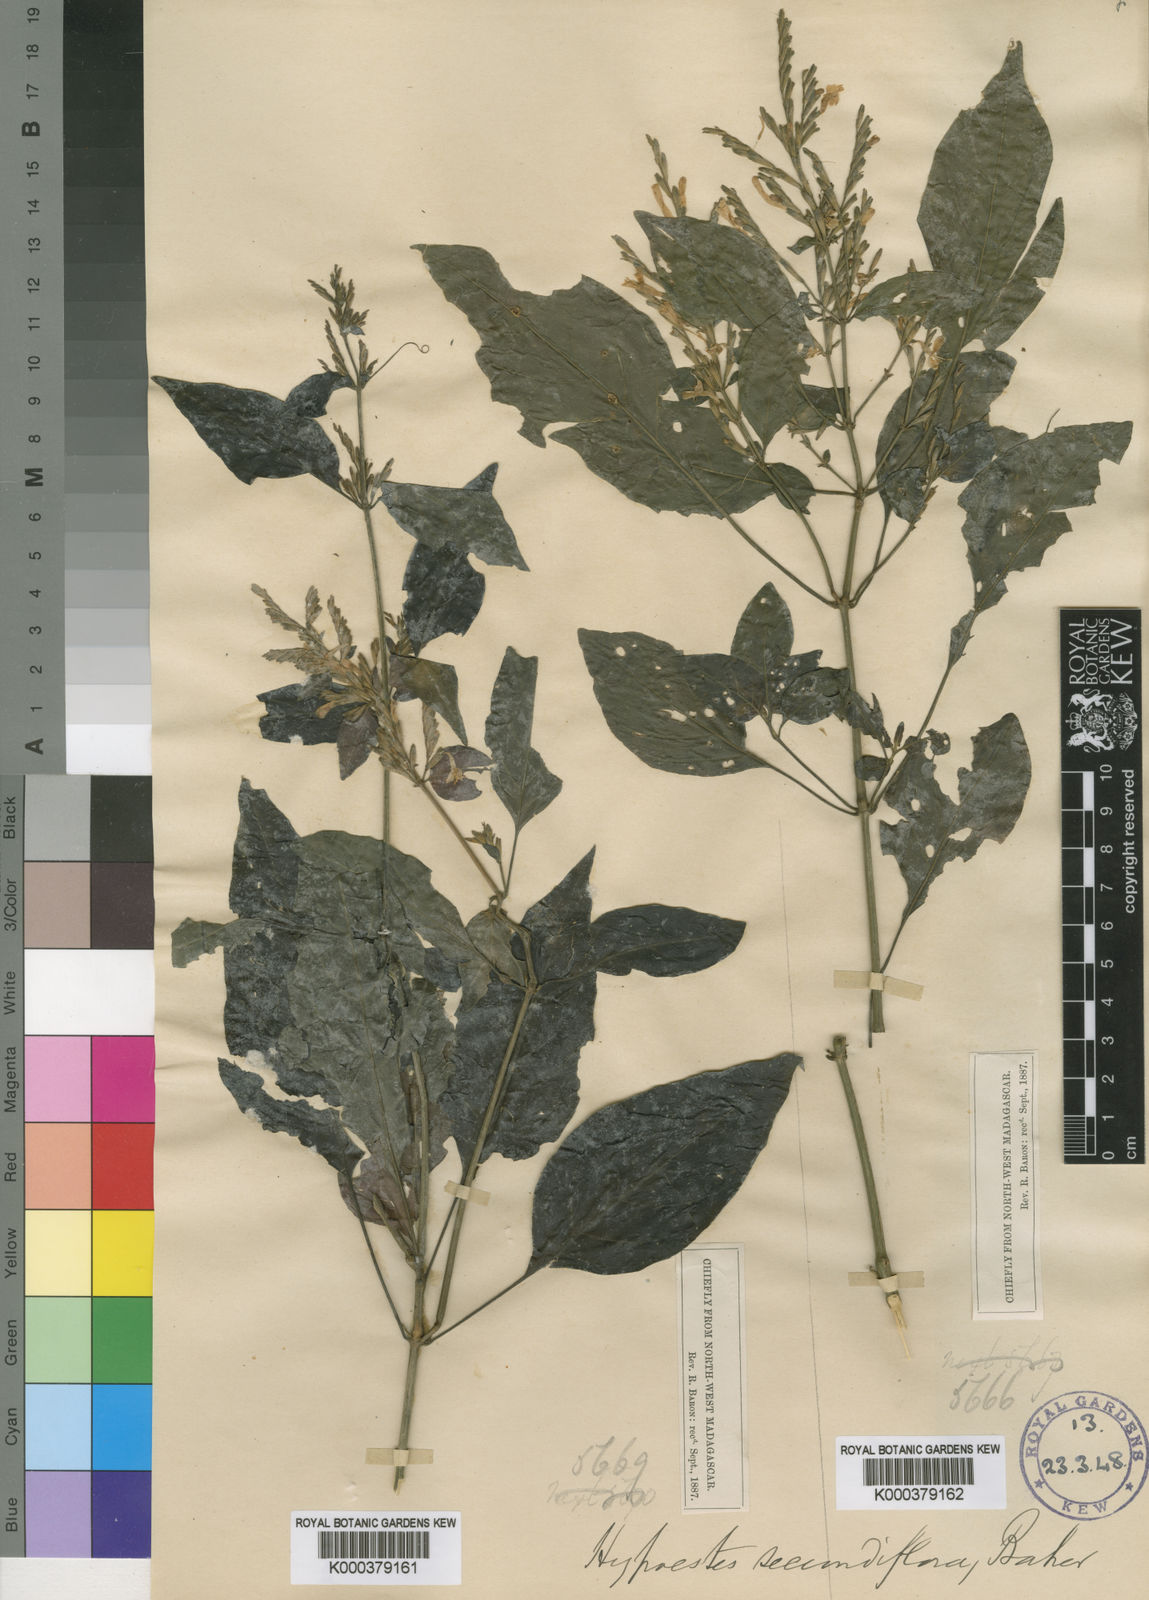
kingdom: Plantae
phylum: Tracheophyta
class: Magnoliopsida
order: Lamiales
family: Acanthaceae
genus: Hypoestes
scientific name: Hypoestes teucrioides
